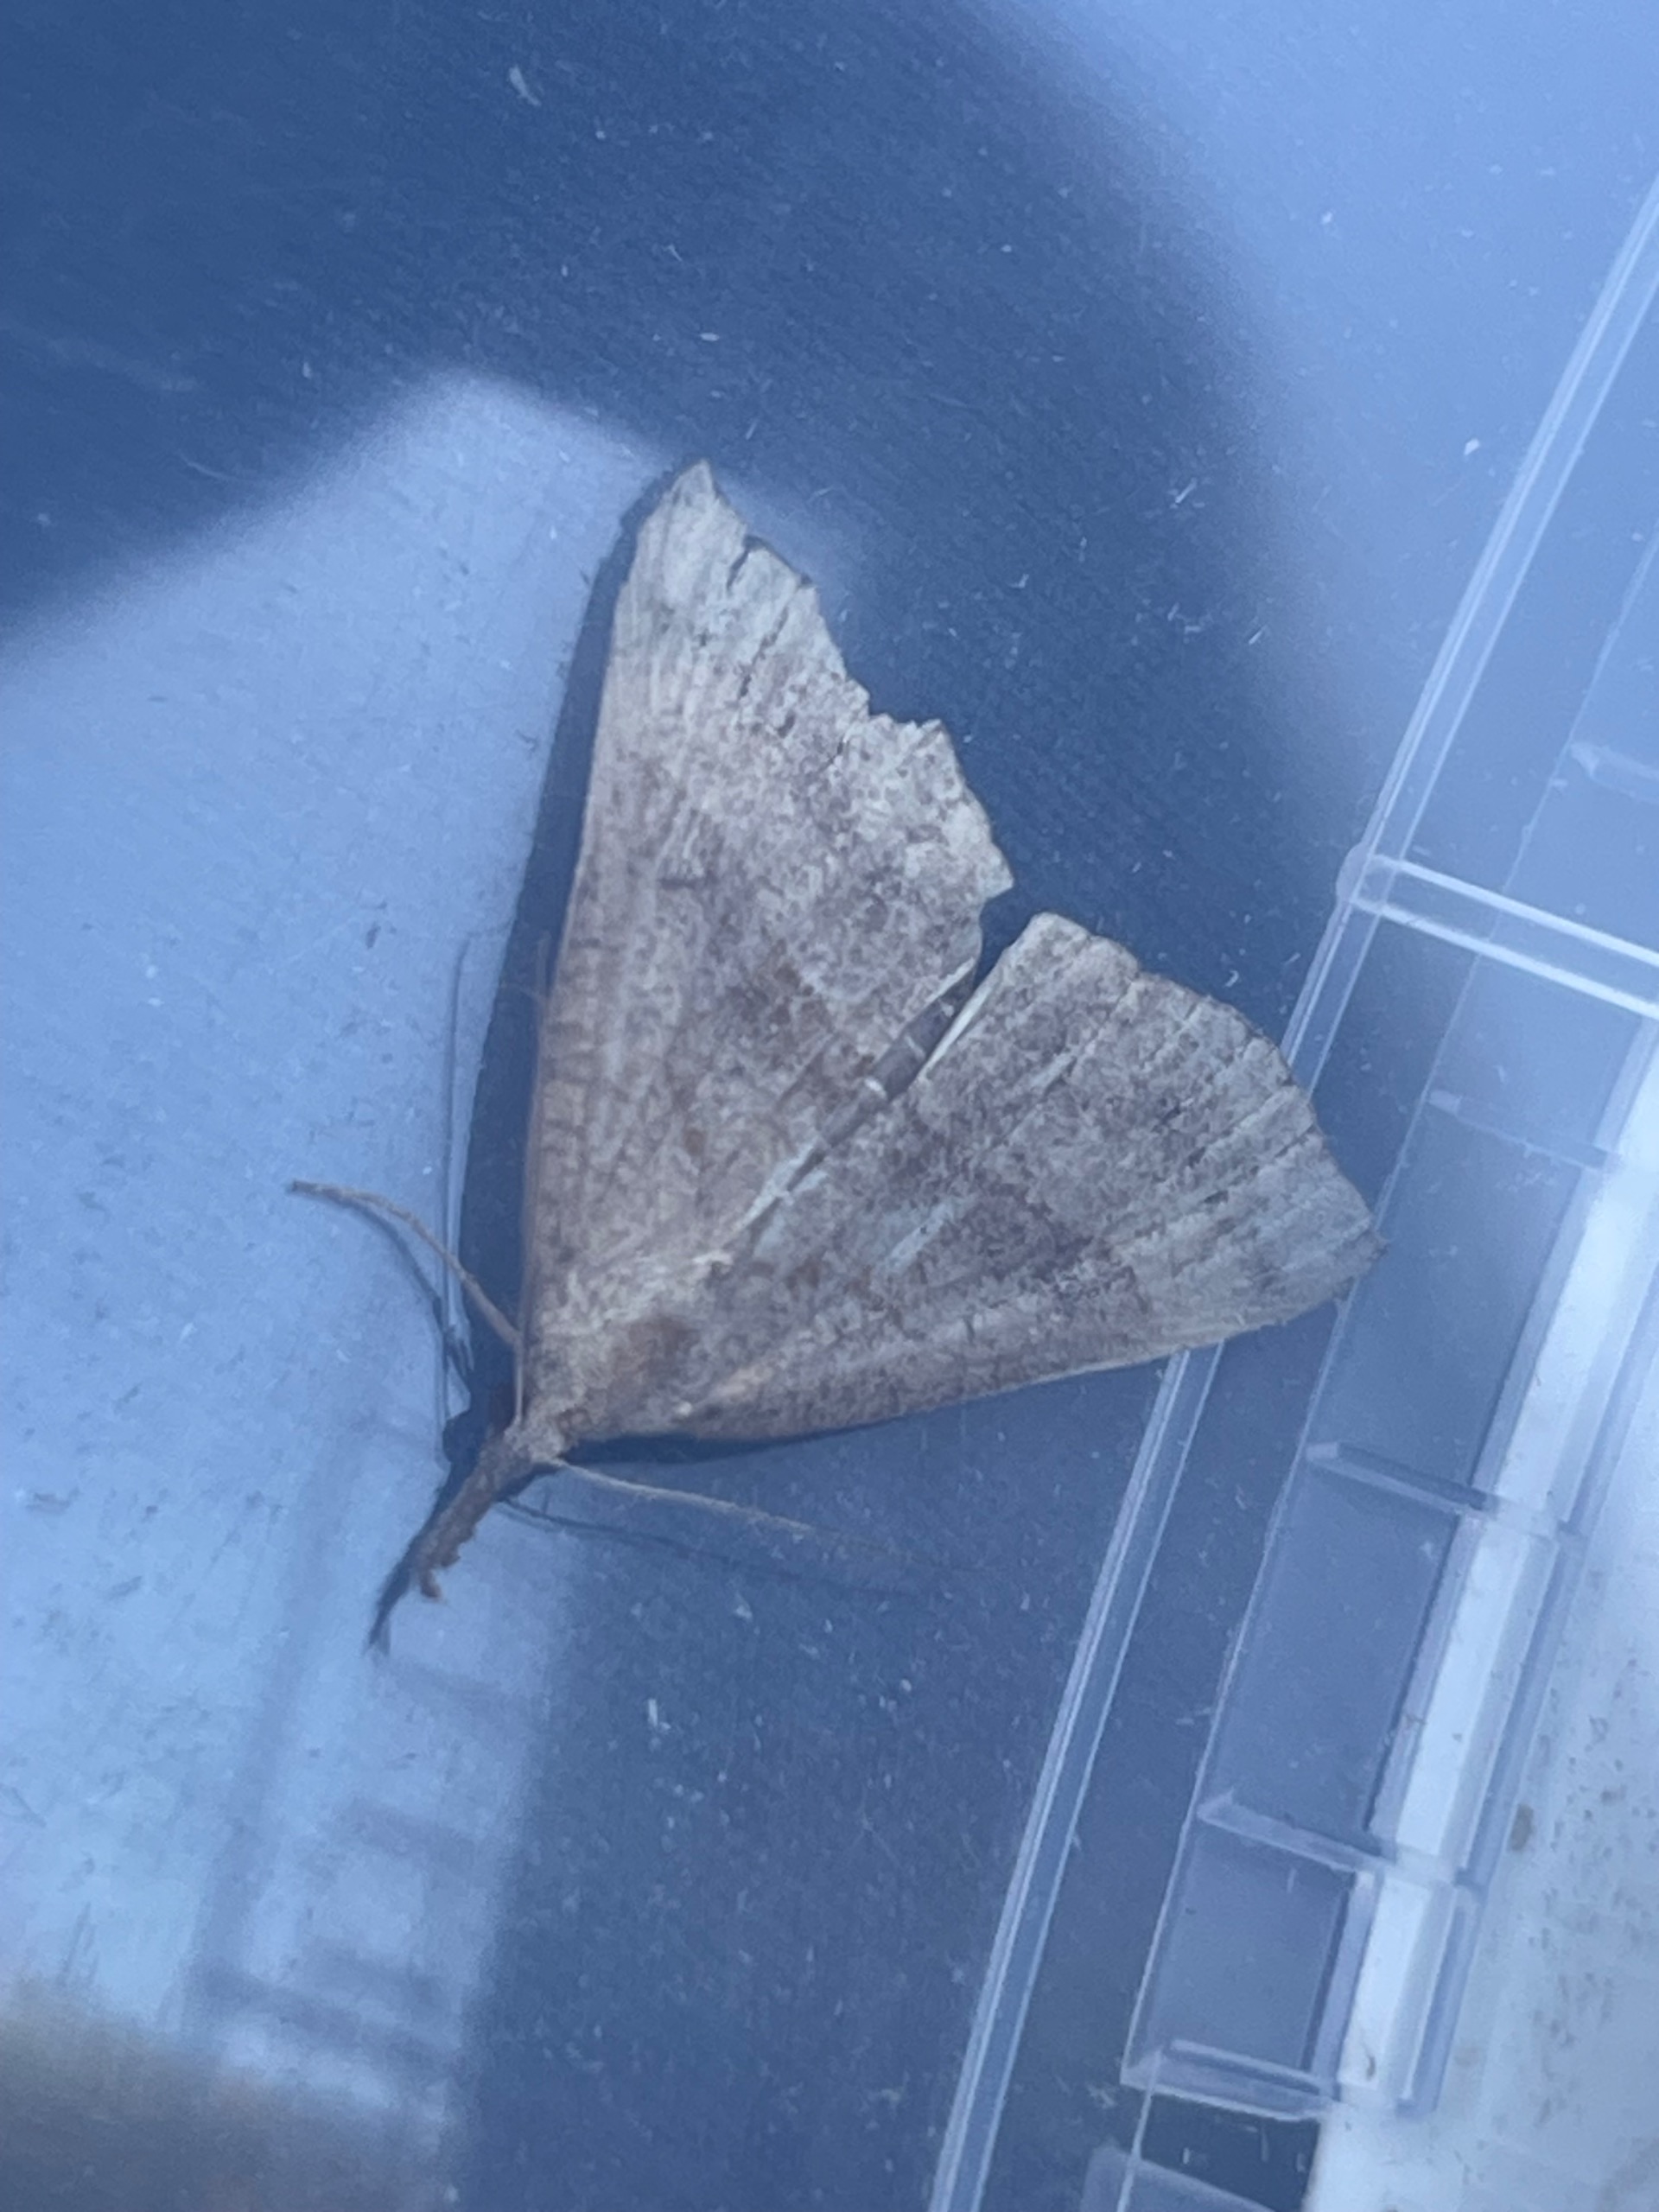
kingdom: Animalia
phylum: Arthropoda
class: Insecta
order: Lepidoptera
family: Erebidae
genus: Hypena
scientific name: Hypena proboscidalis
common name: Snudeugle
